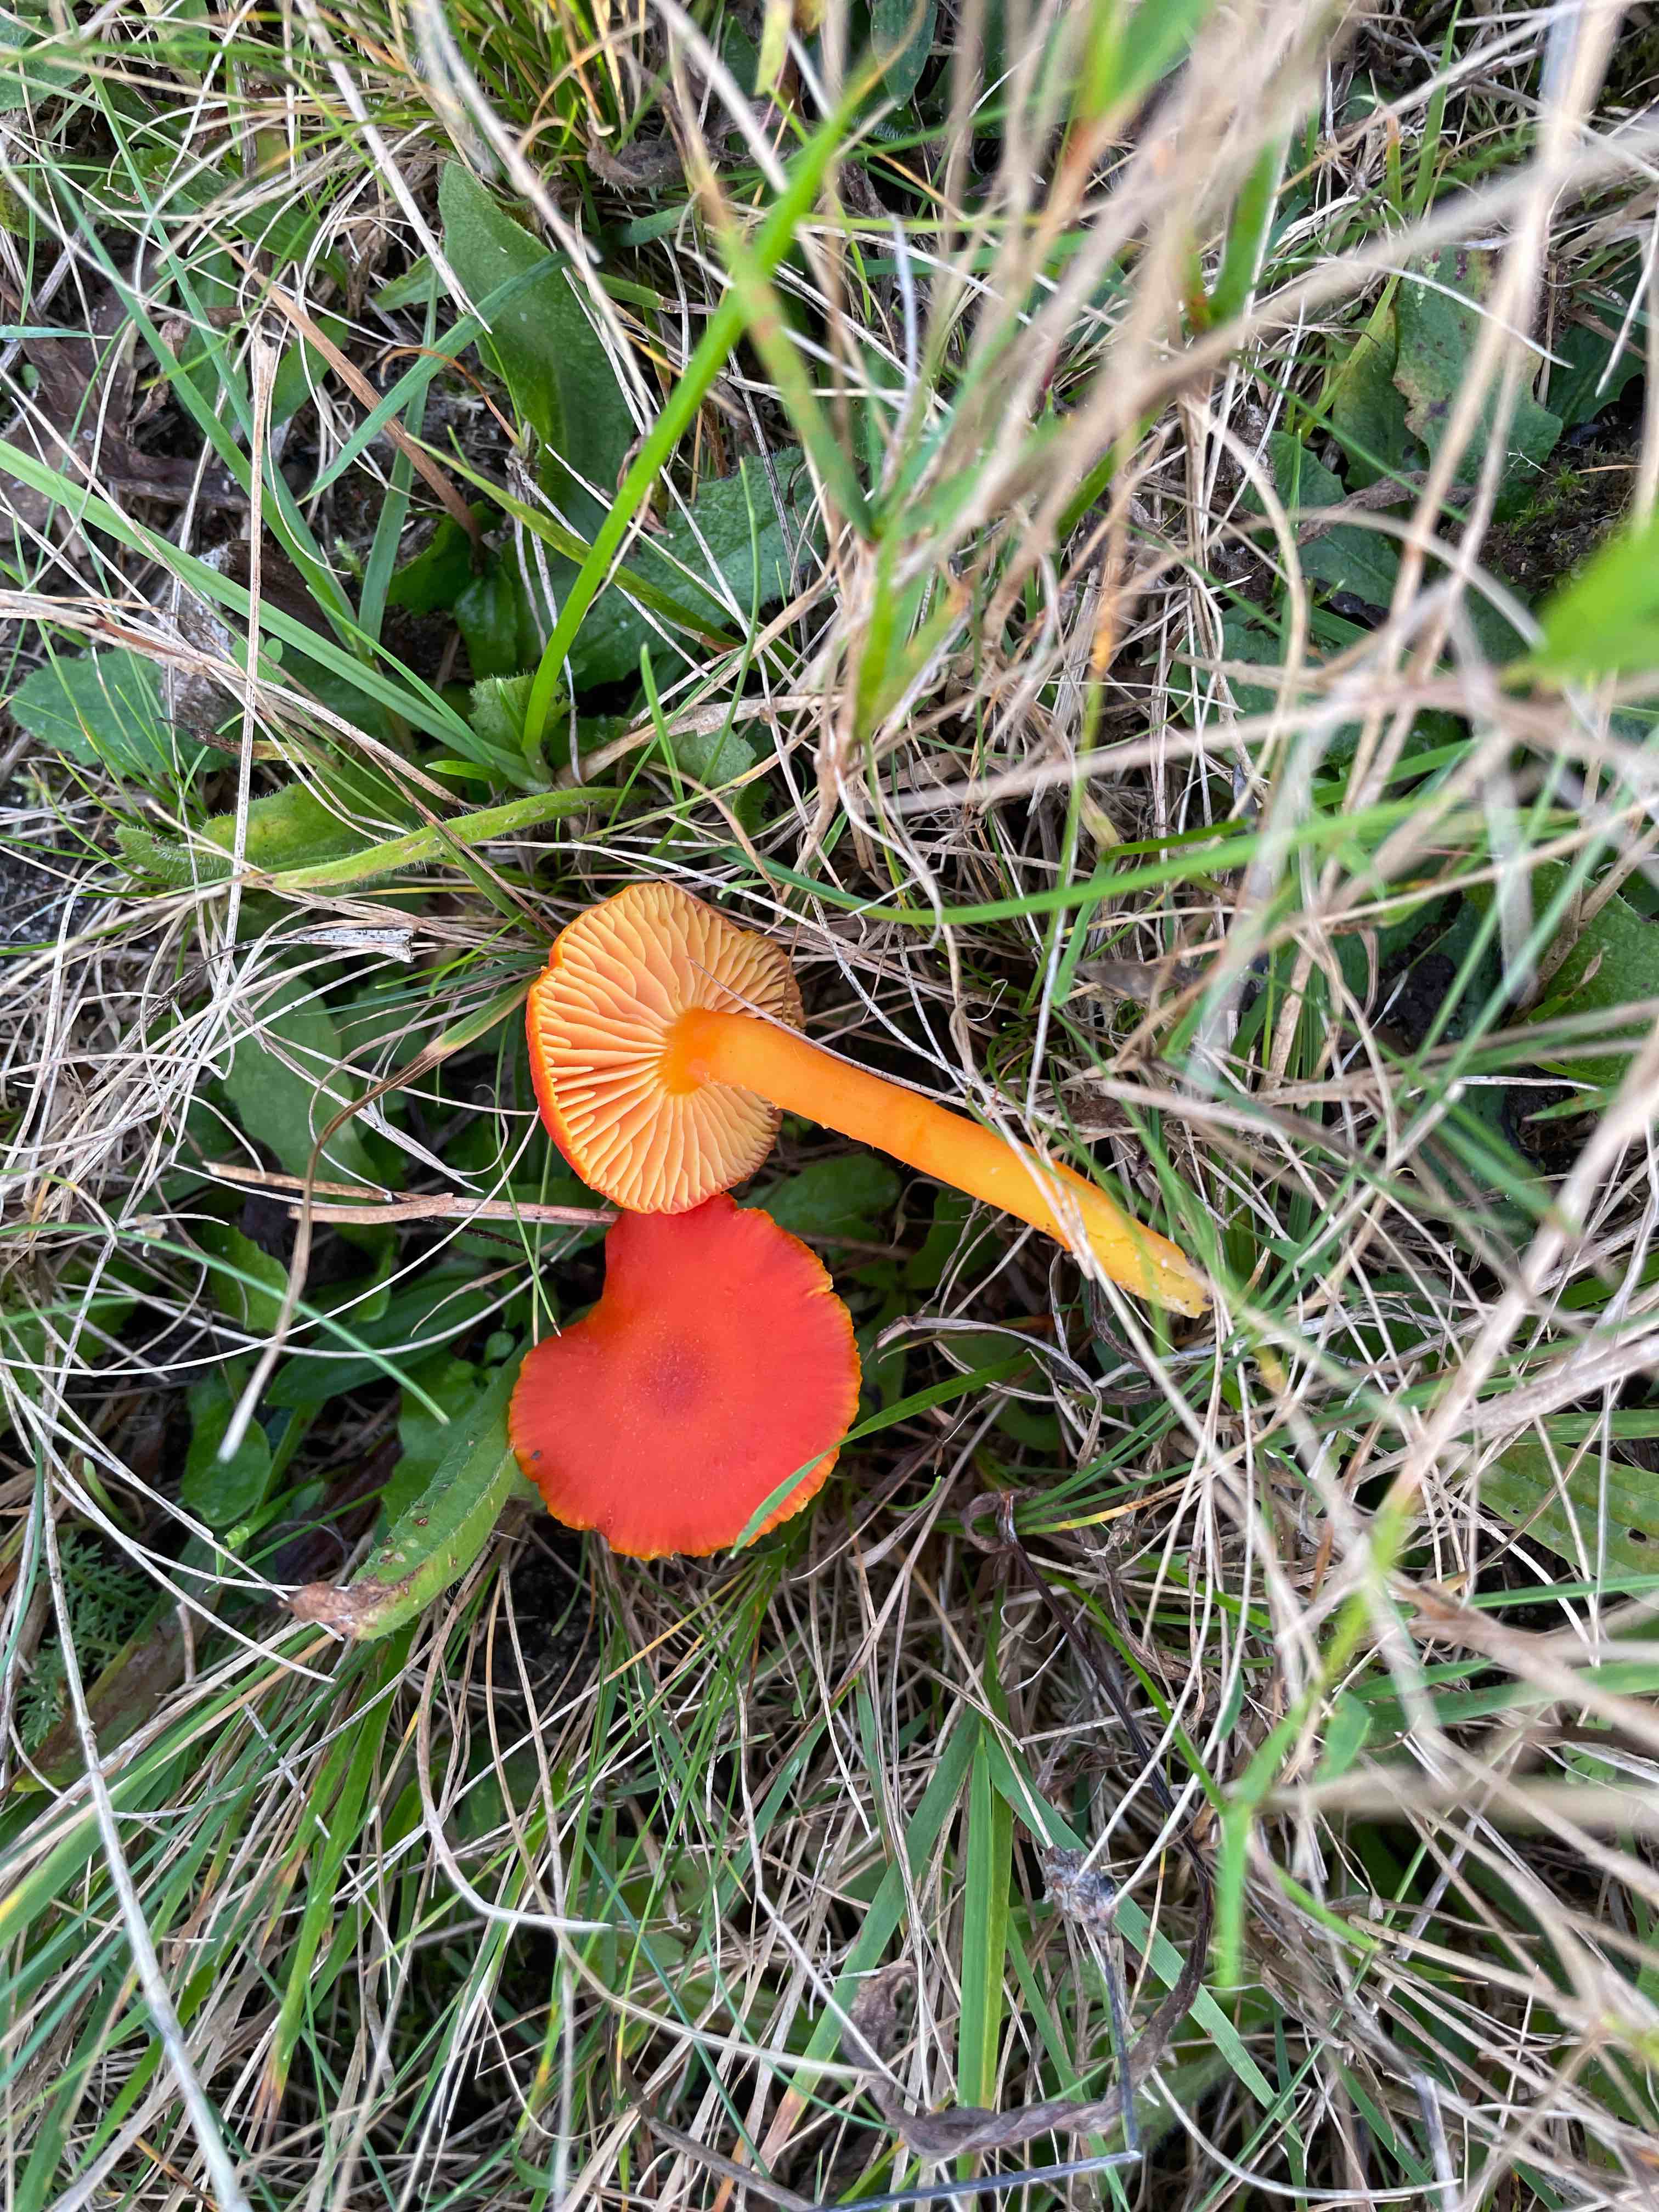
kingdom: Fungi
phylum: Basidiomycota
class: Agaricomycetes
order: Agaricales
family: Hygrophoraceae
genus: Hygrocybe
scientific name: Hygrocybe miniata
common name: mønje-vokshat
